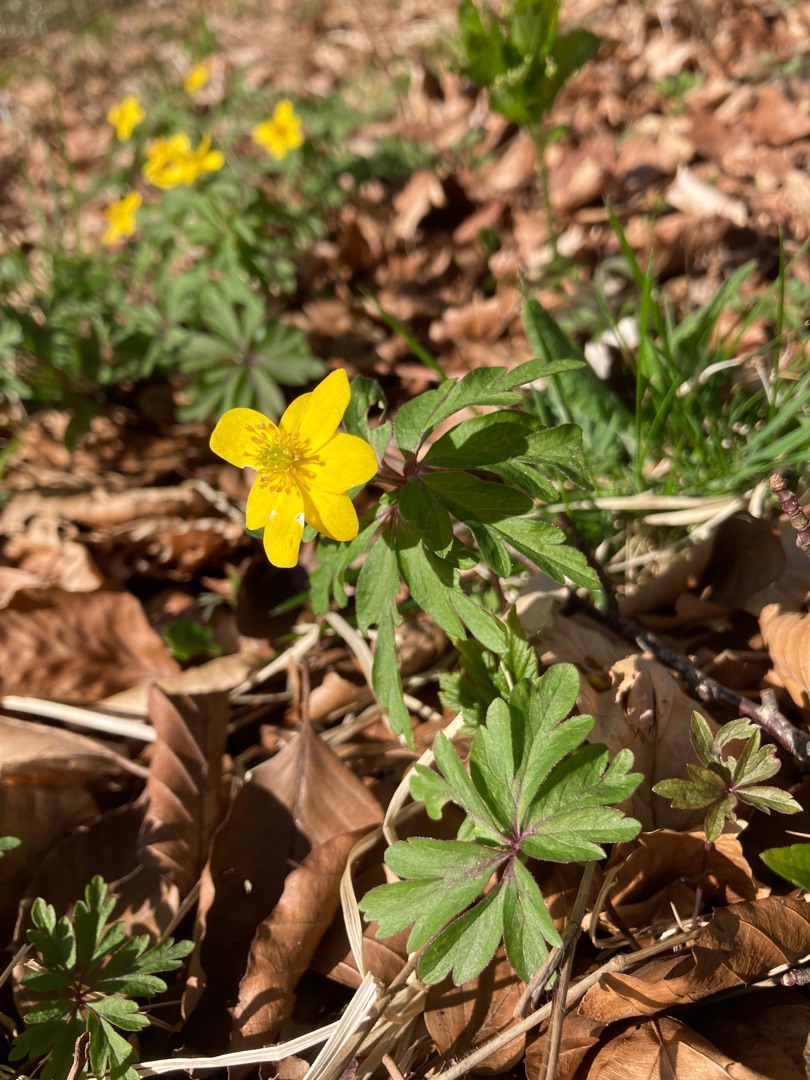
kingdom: Plantae
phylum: Tracheophyta
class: Magnoliopsida
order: Ranunculales
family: Ranunculaceae
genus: Anemone
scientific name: Anemone ranunculoides
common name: Gul anemone
